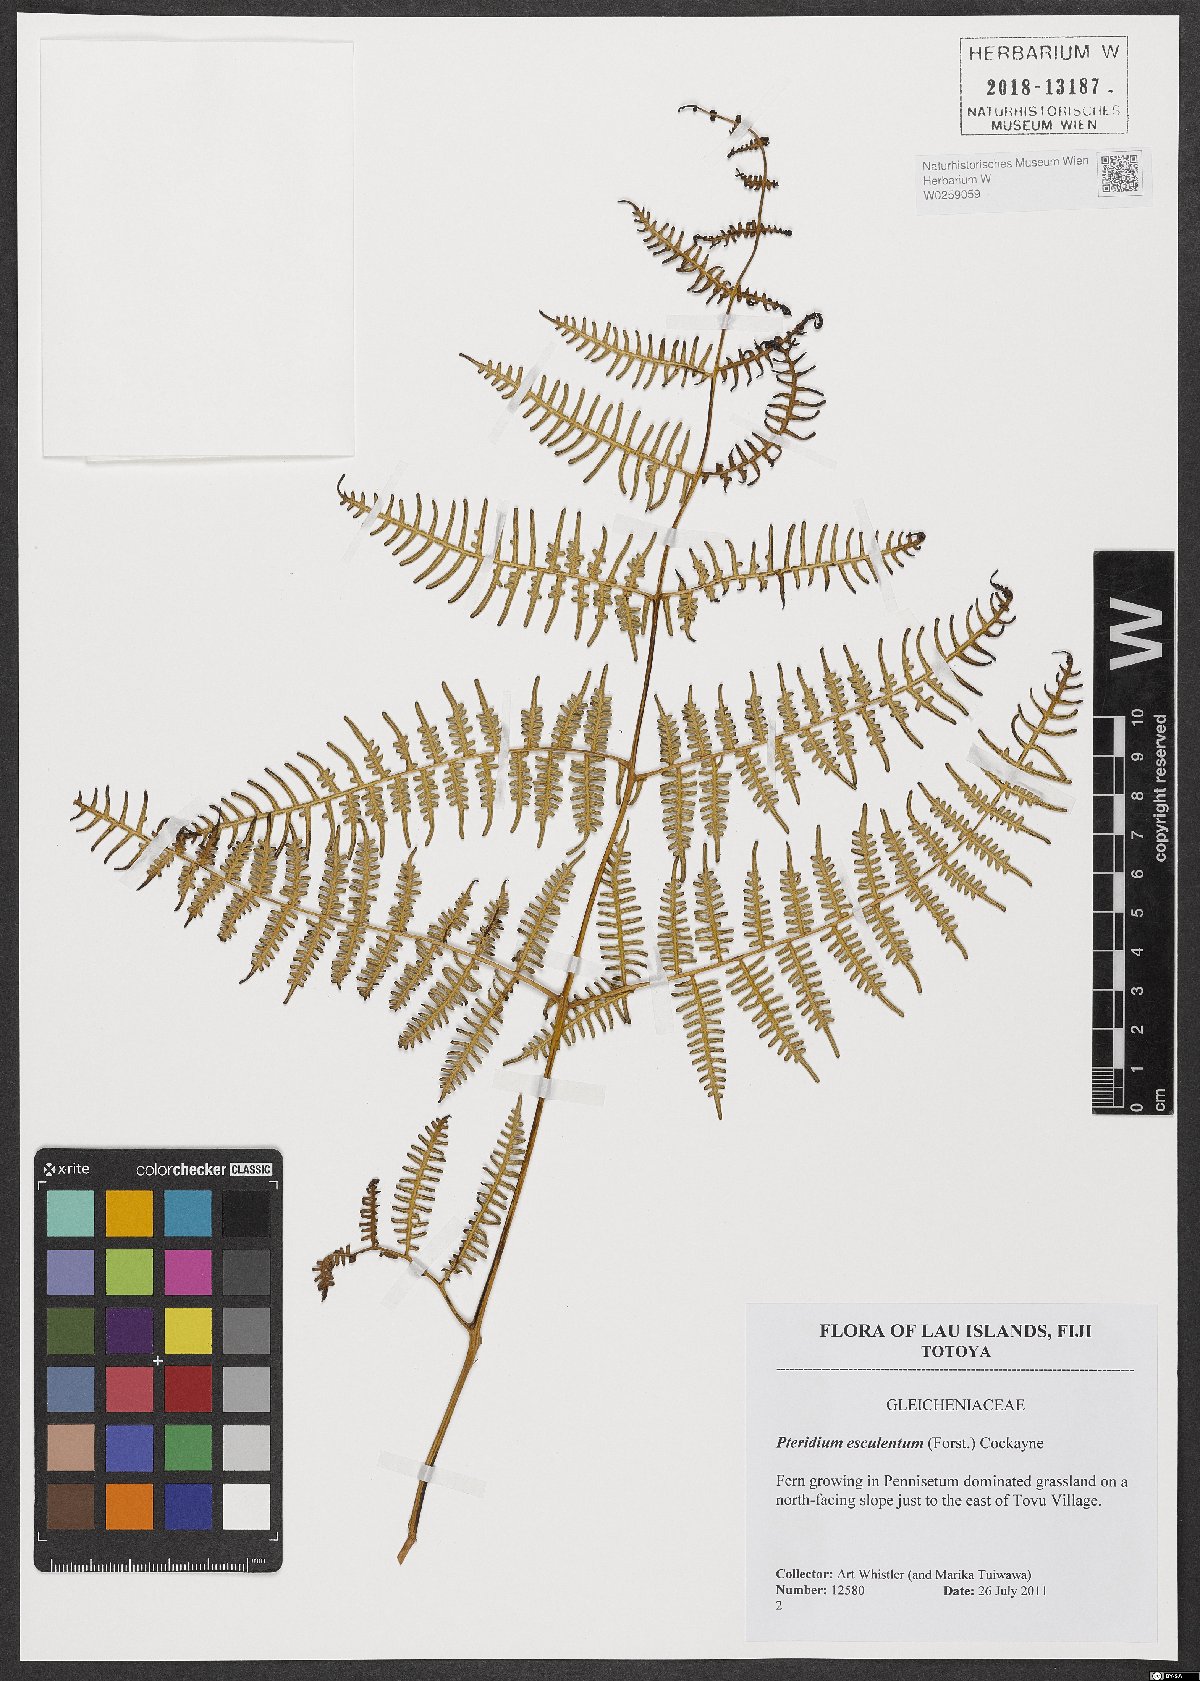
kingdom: Plantae
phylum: Tracheophyta
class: Polypodiopsida
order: Polypodiales
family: Dennstaedtiaceae
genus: Pteridium
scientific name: Pteridium esculentum
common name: Bracken fern
